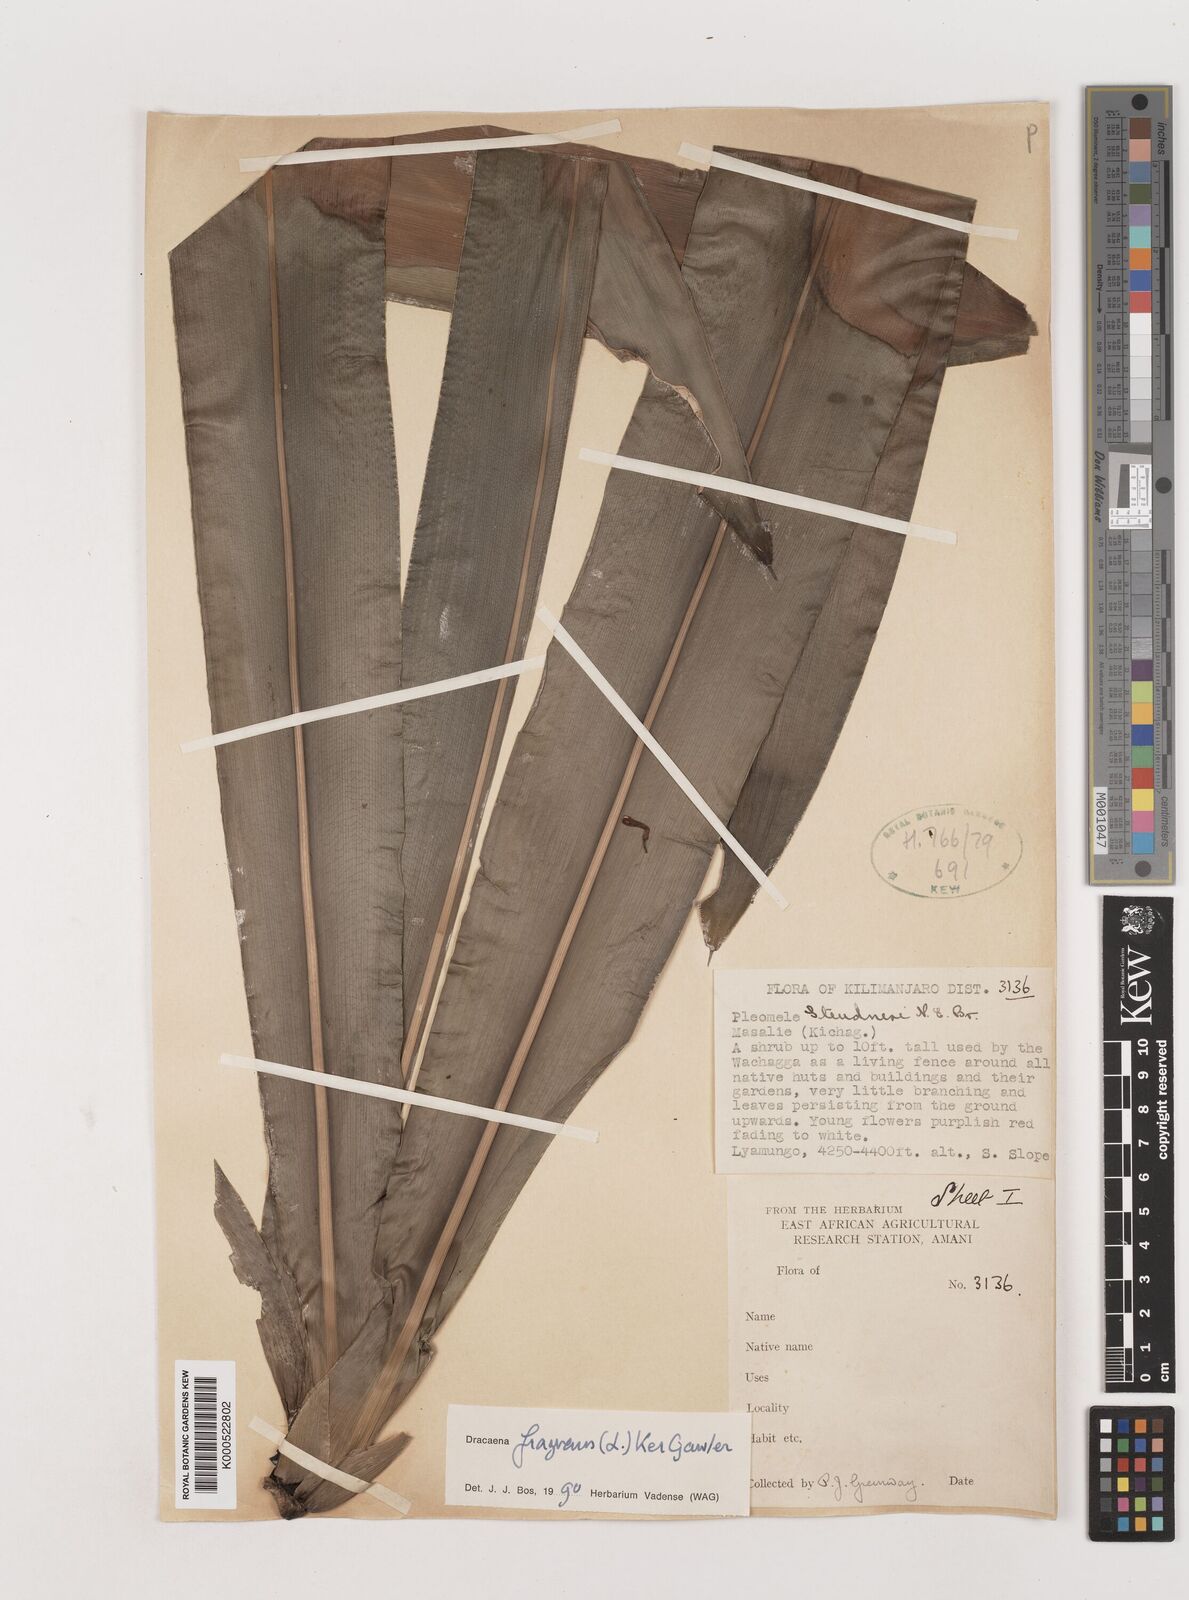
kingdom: Plantae
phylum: Tracheophyta
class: Liliopsida
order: Asparagales
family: Asparagaceae
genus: Dracaena
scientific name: Dracaena fragrans
